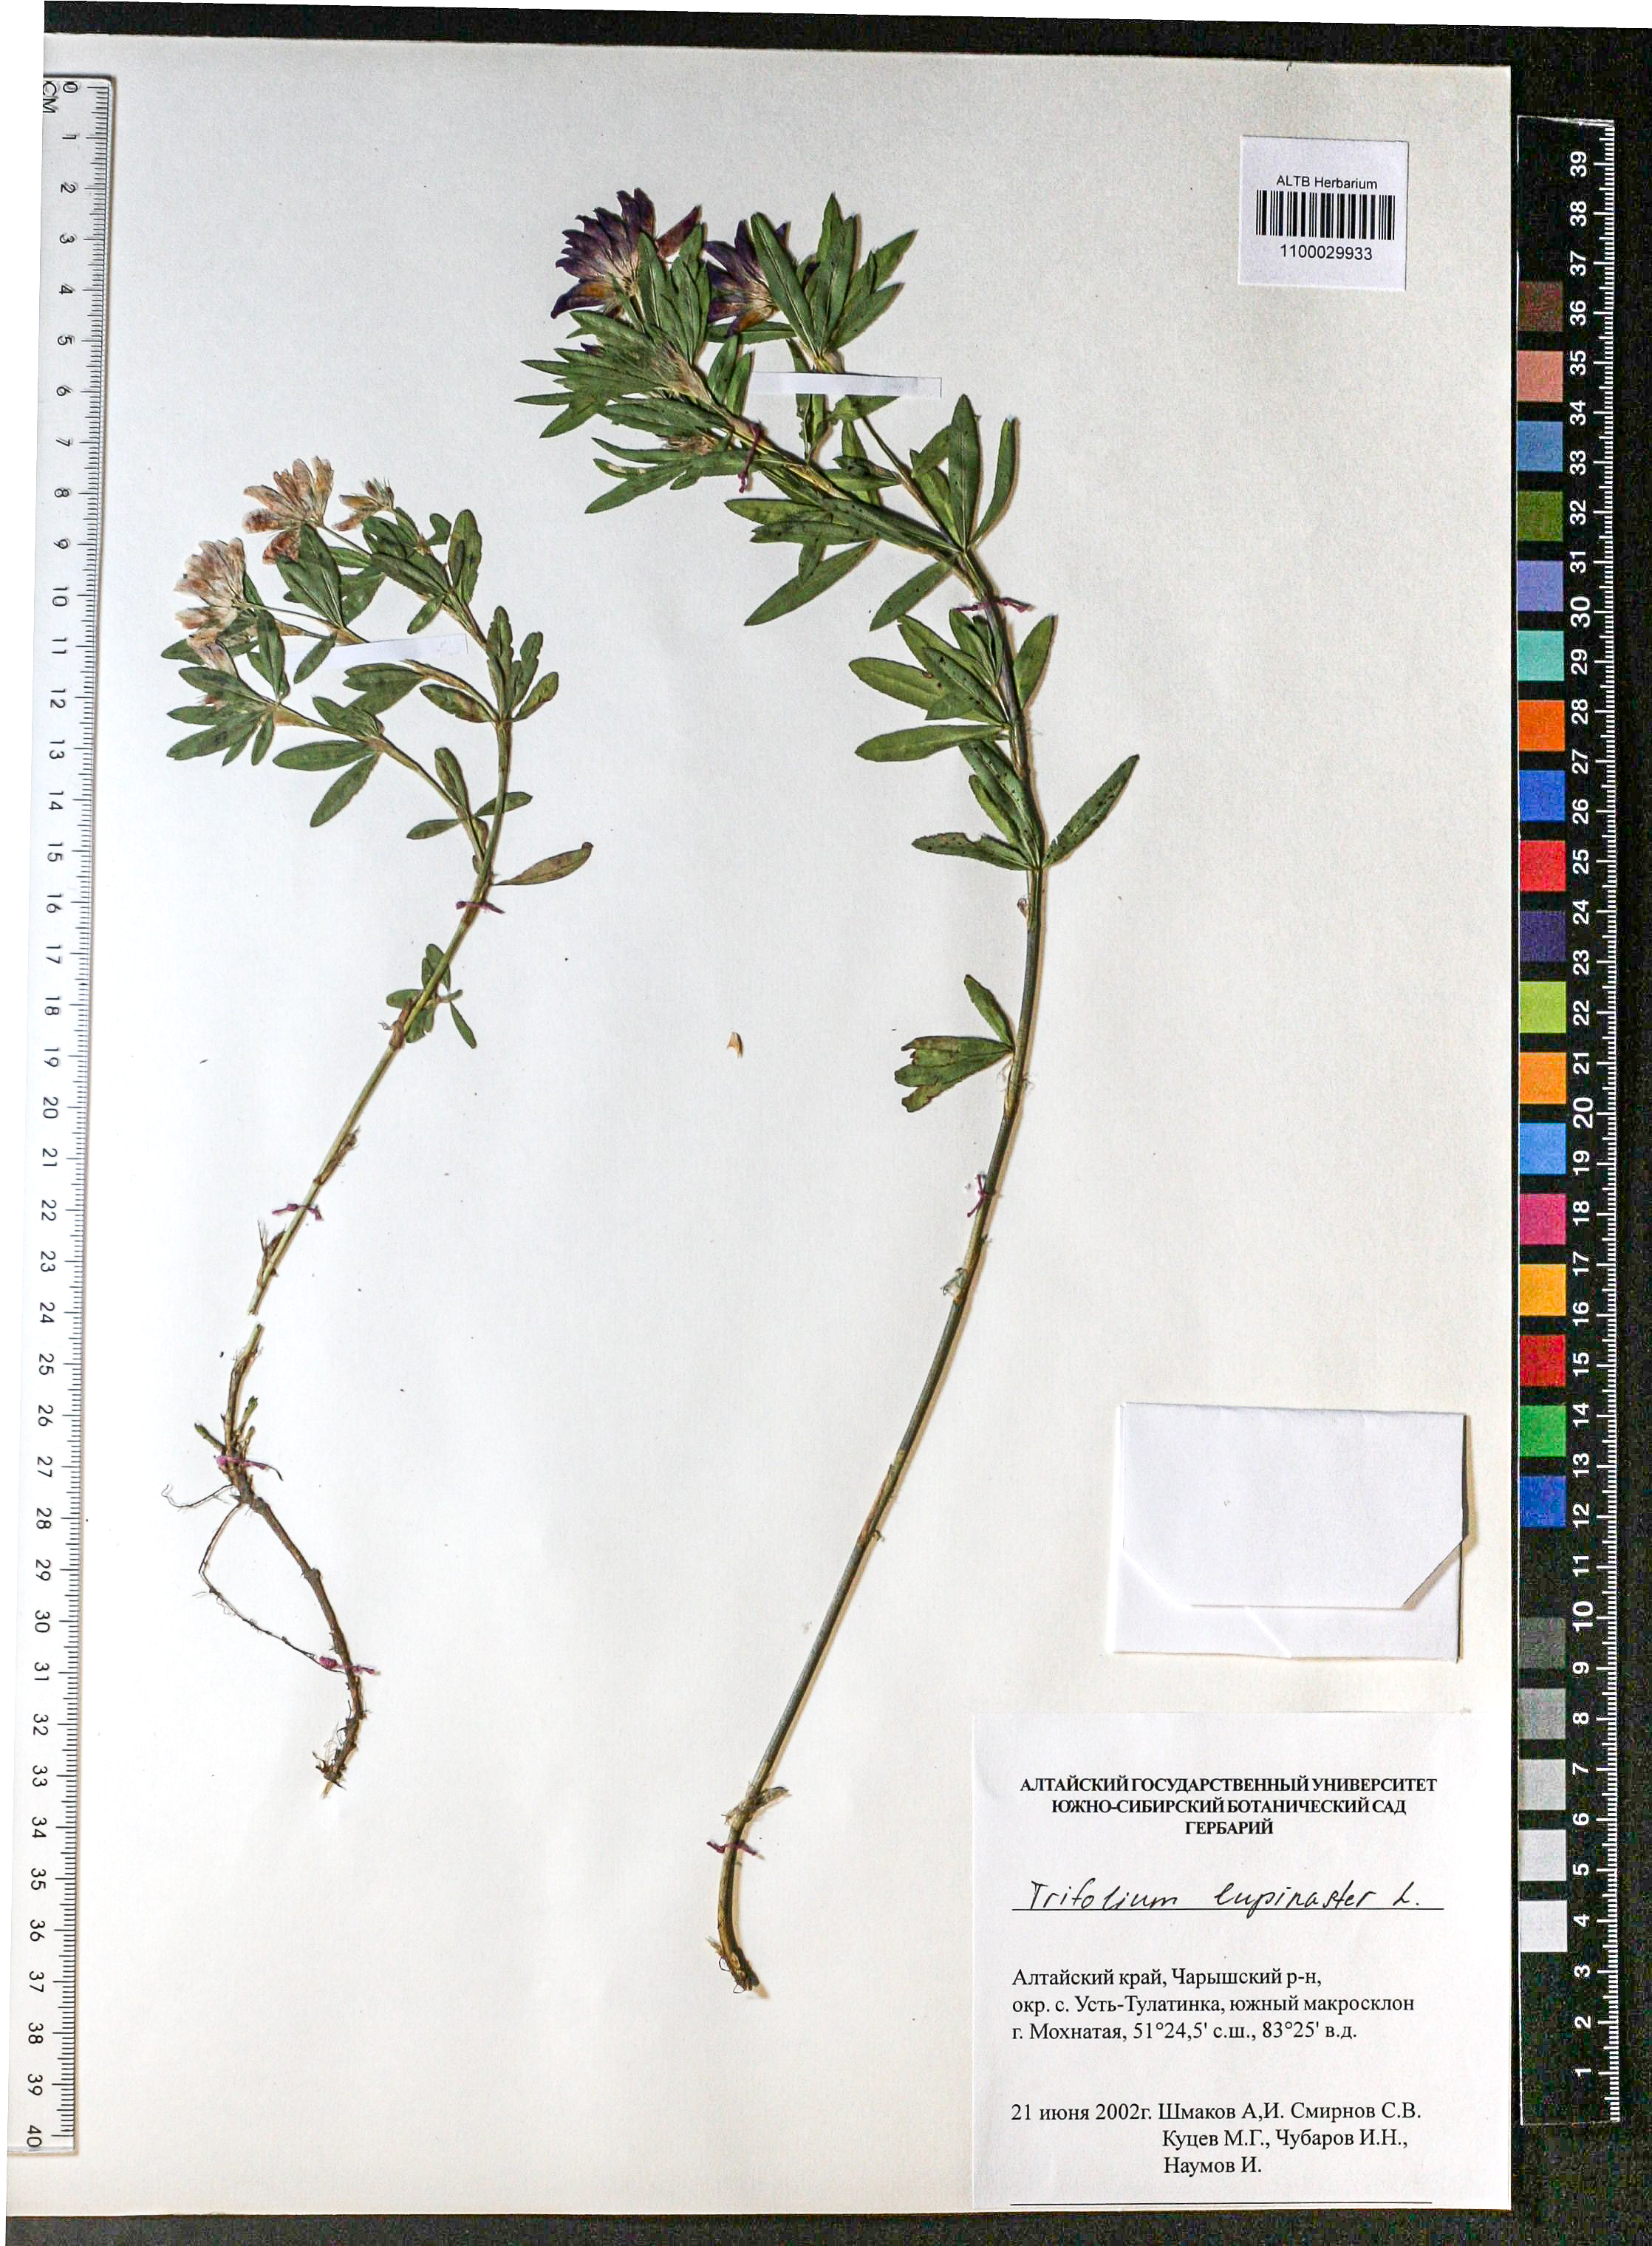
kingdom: Plantae
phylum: Tracheophyta
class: Magnoliopsida
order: Fabales
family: Fabaceae
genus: Trifolium
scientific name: Trifolium lupinaster
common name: Lupine clover
